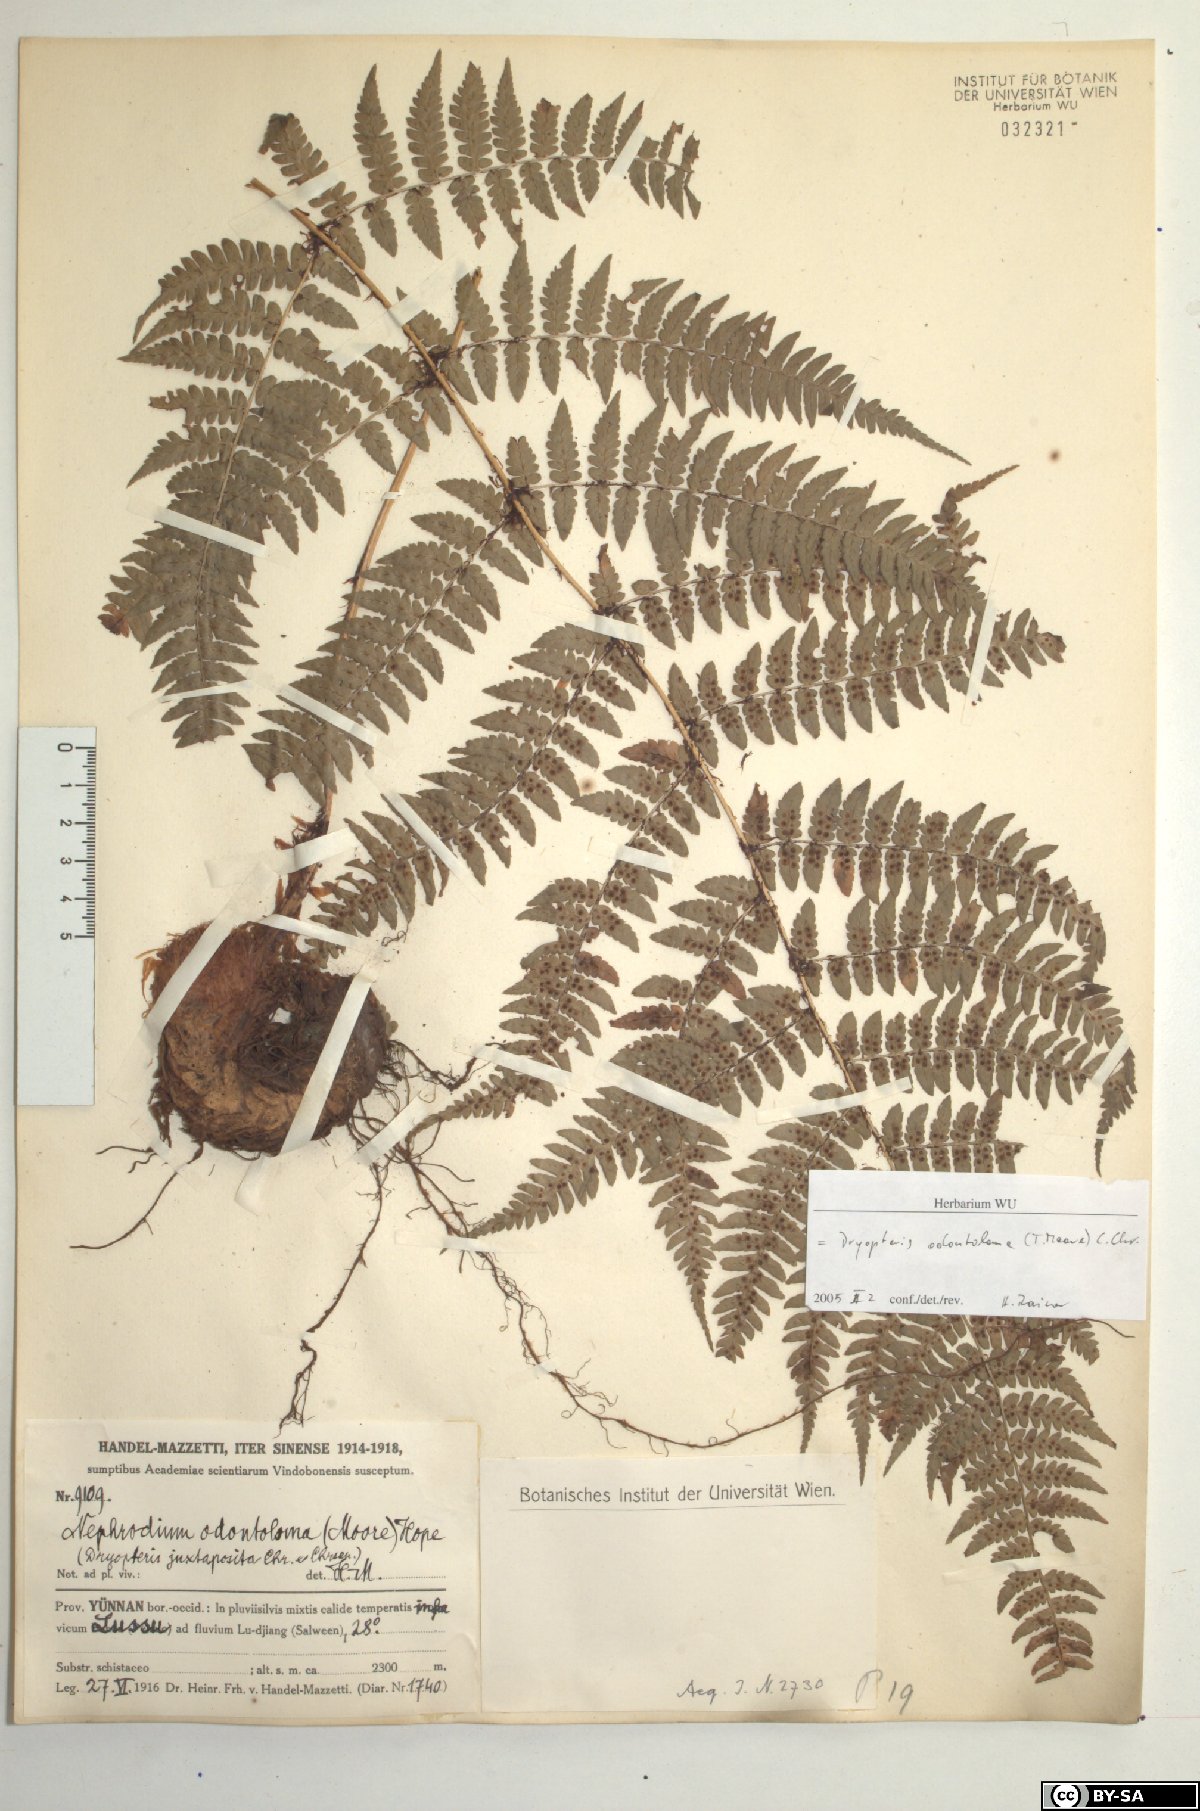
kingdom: Plantae
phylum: Tracheophyta
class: Polypodiopsida
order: Polypodiales
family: Dryopteridaceae
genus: Dryopteris
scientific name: Dryopteris odontoloma
